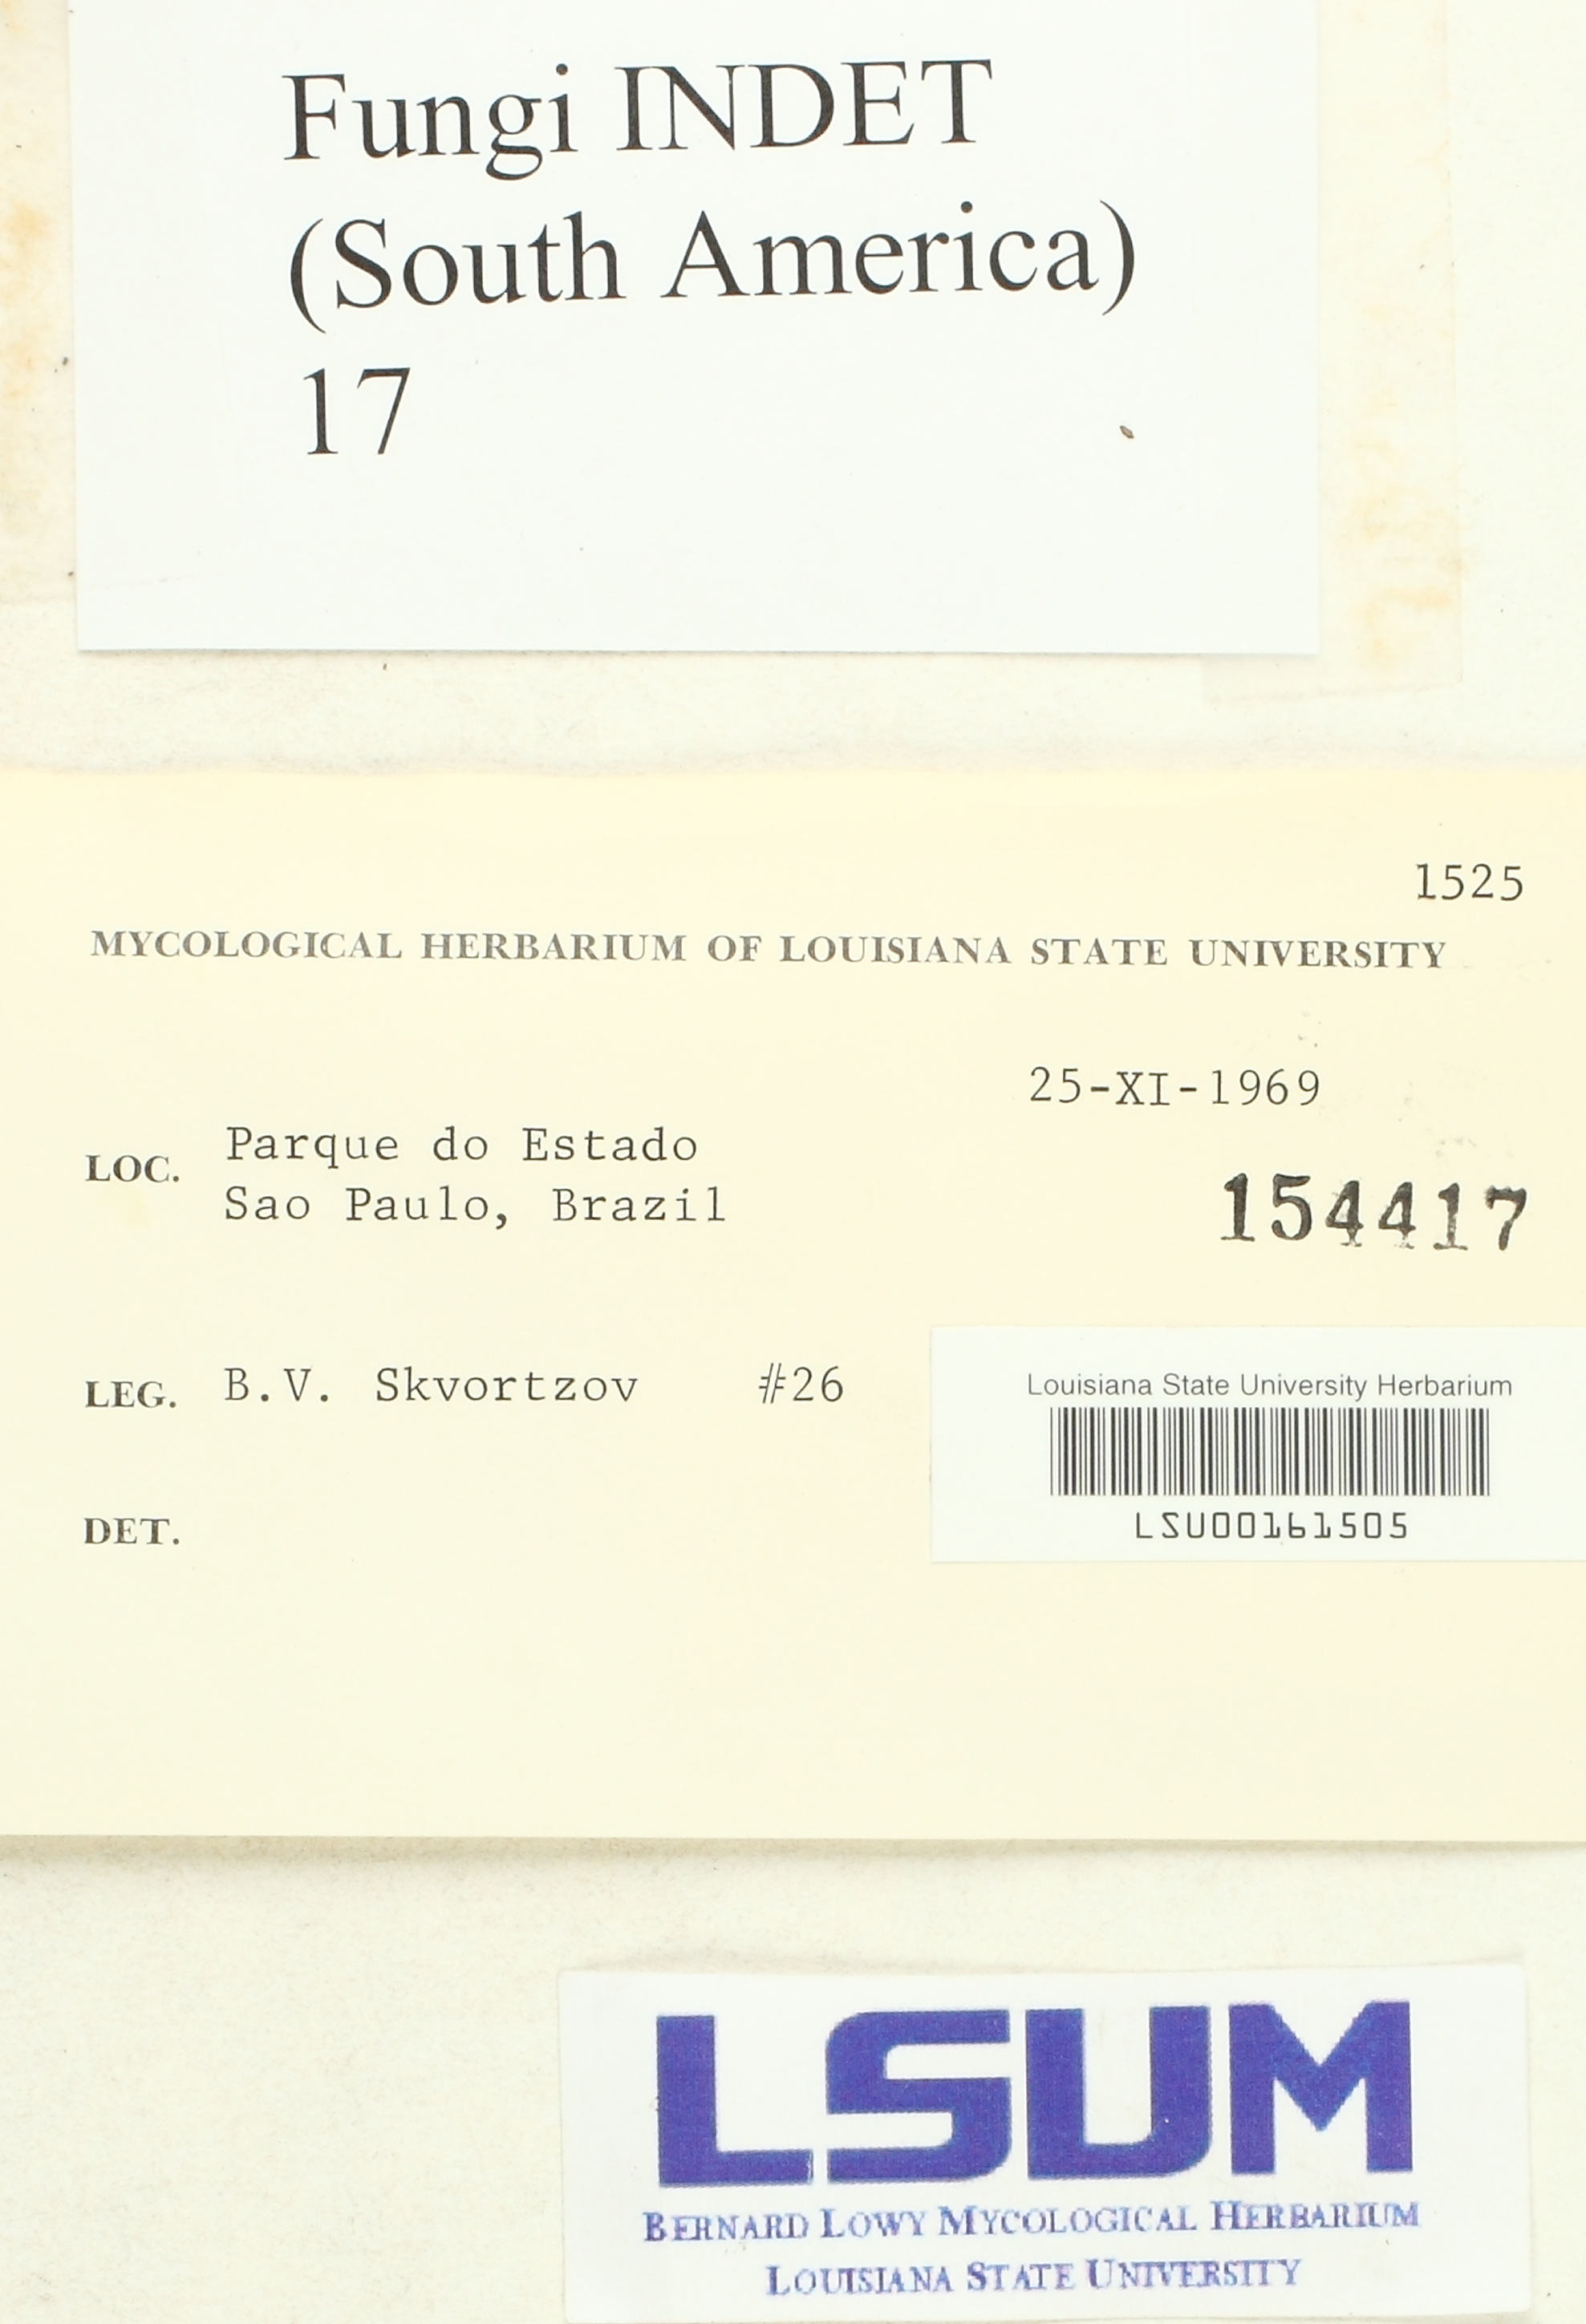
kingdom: Fungi
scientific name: Fungi
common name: Fungi
